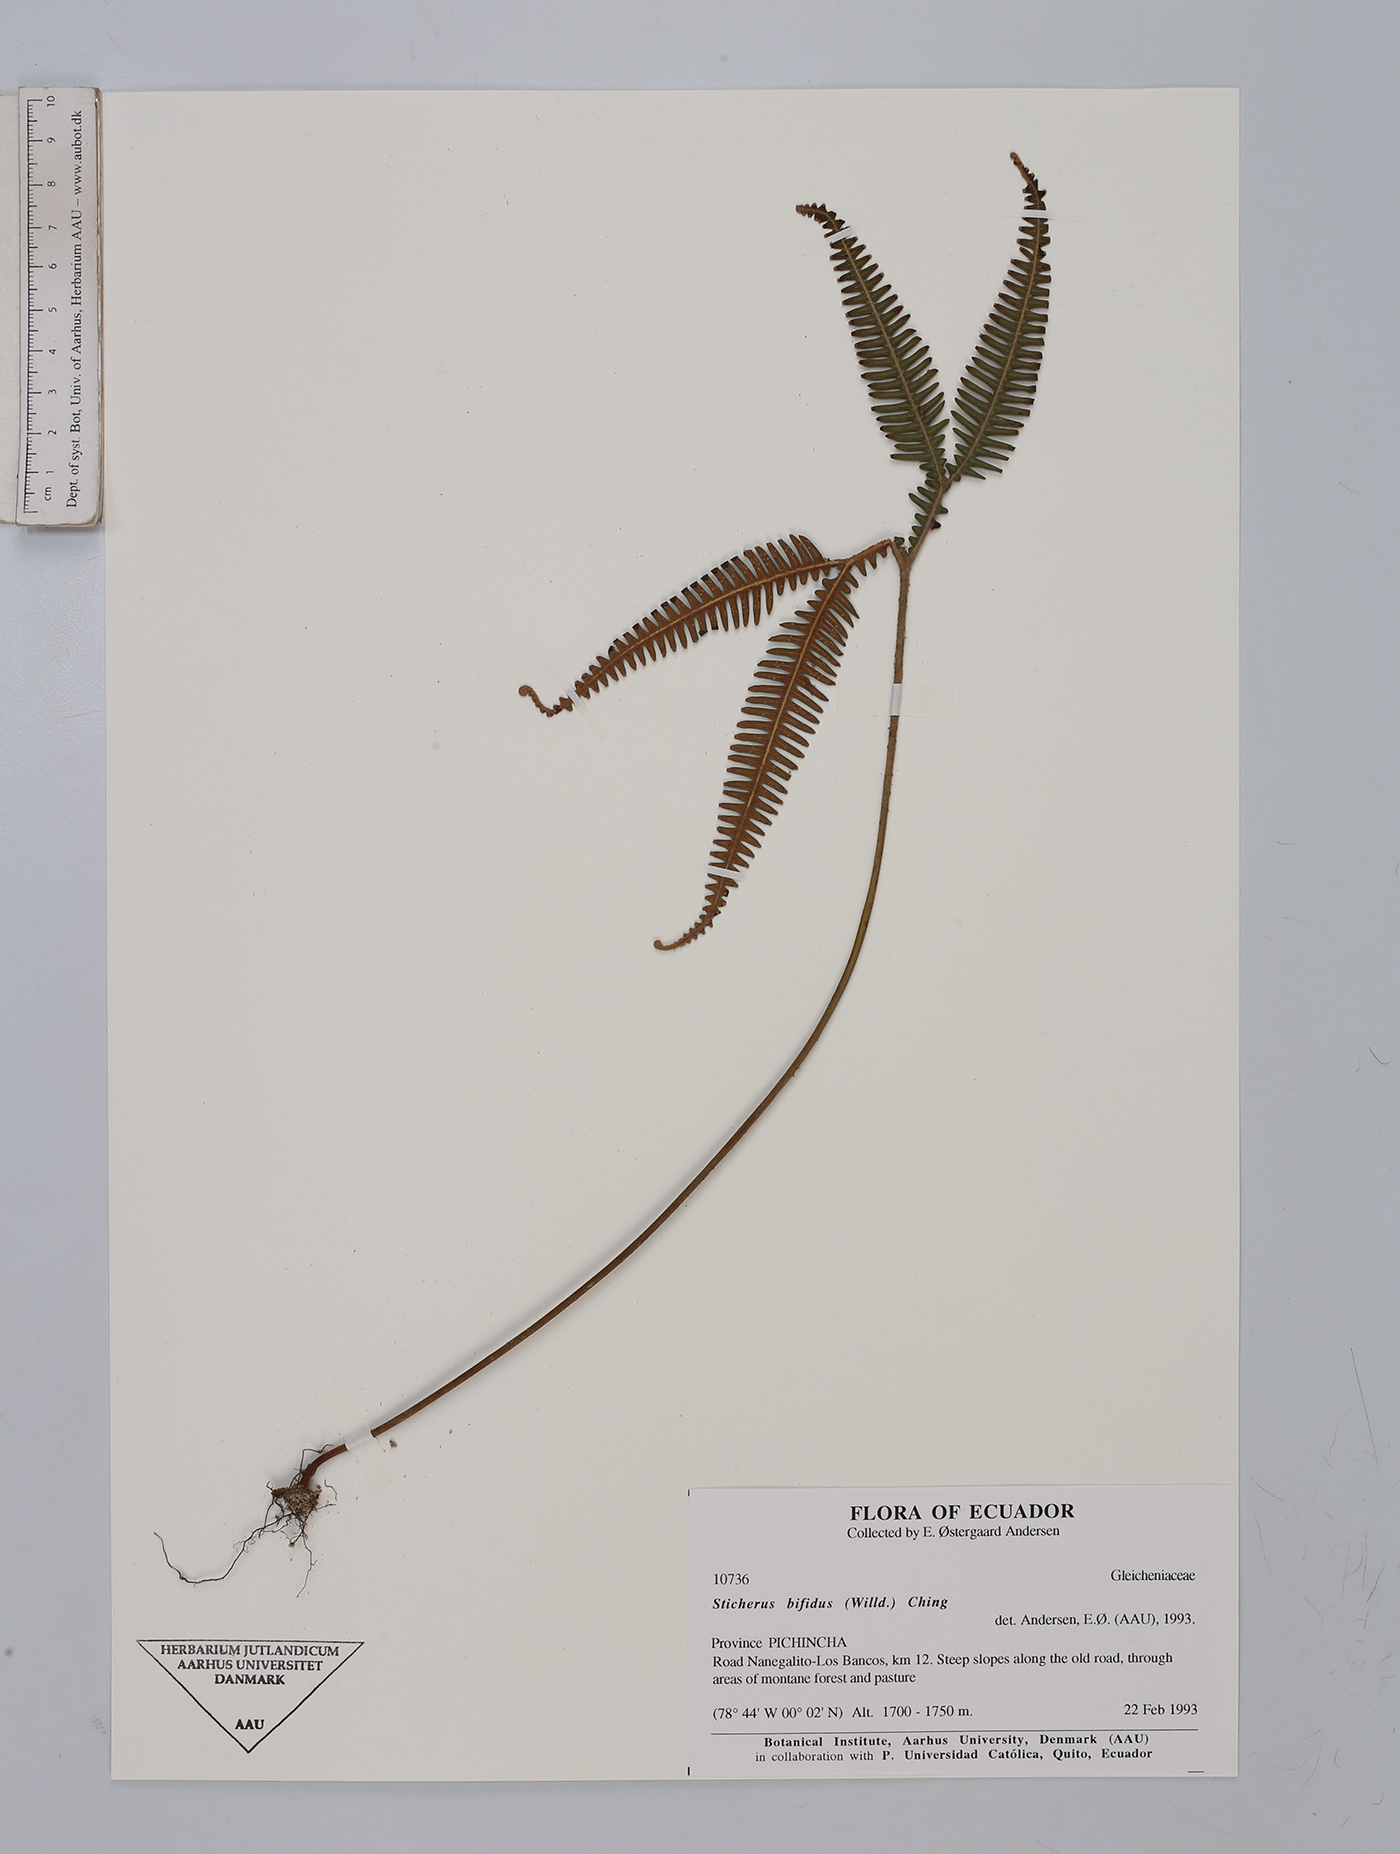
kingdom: Plantae
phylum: Tracheophyta
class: Polypodiopsida
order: Gleicheniales
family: Gleicheniaceae
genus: Sticherus
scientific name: Sticherus bifidus
